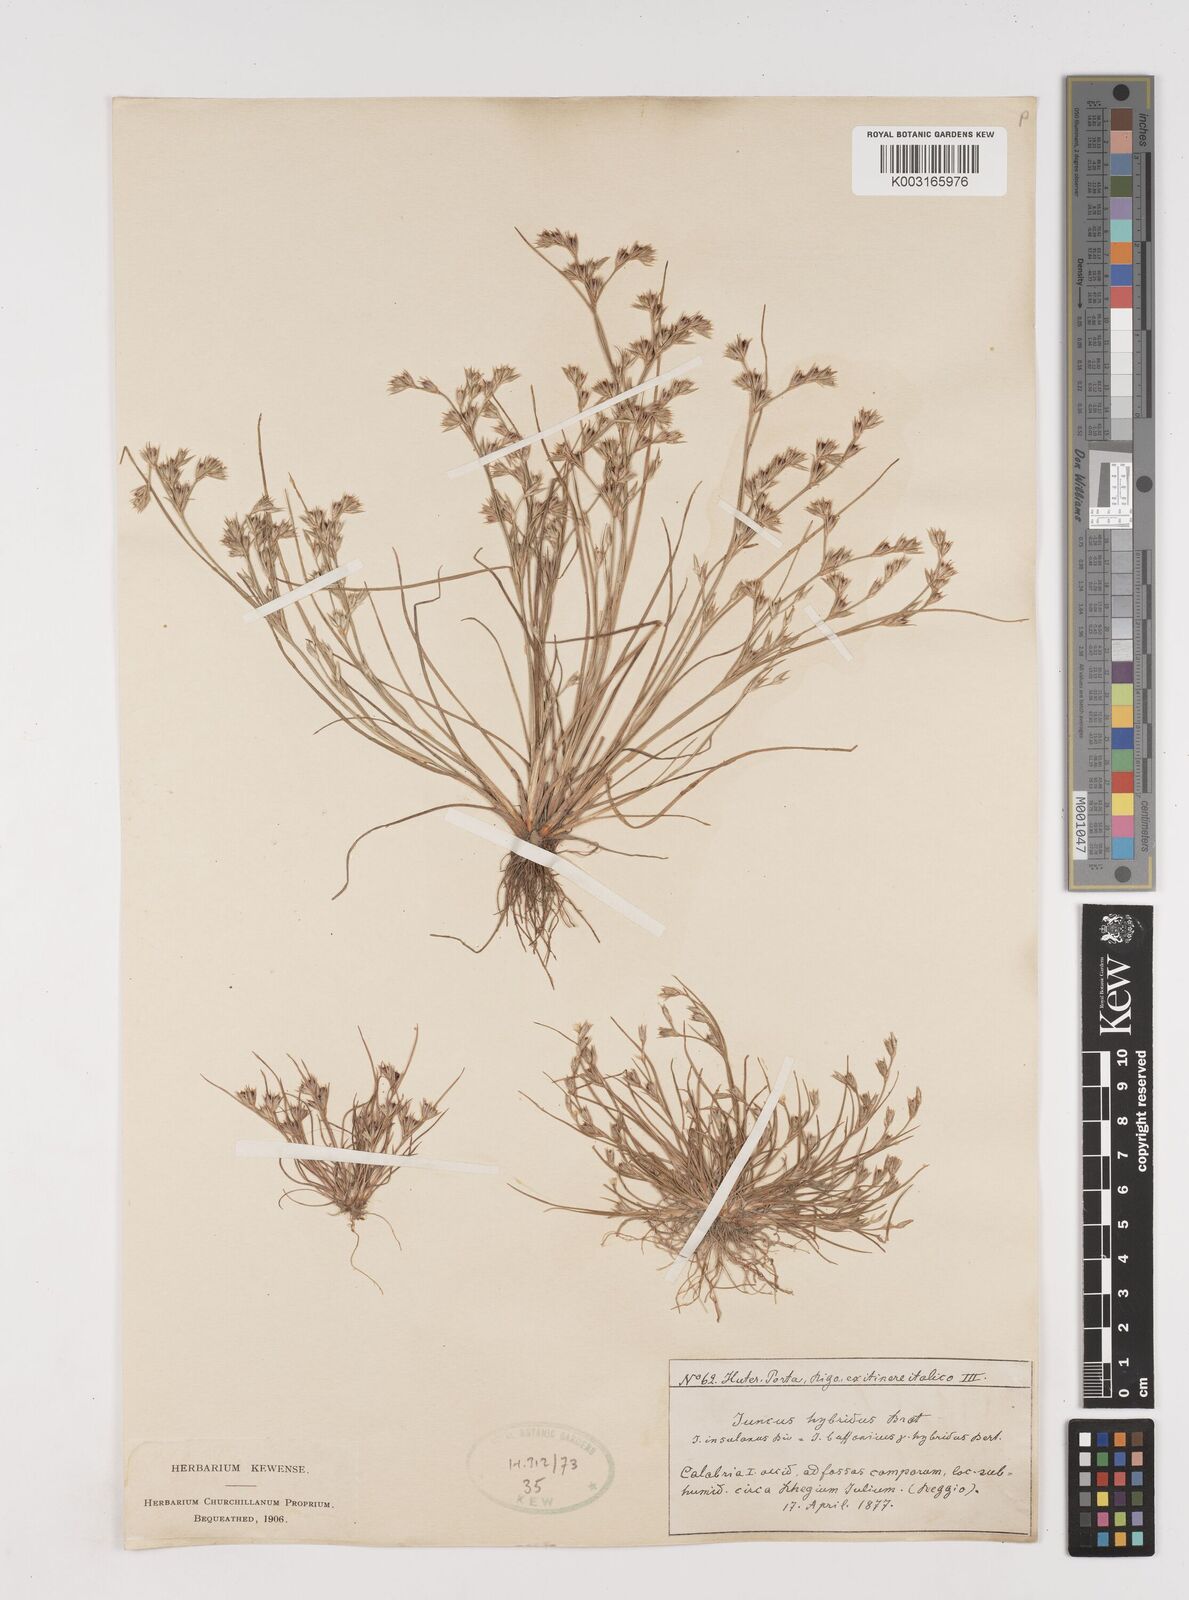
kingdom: Plantae
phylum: Tracheophyta
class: Liliopsida
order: Poales
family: Juncaceae
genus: Juncus
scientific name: Juncus bufonius
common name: Toad rush
